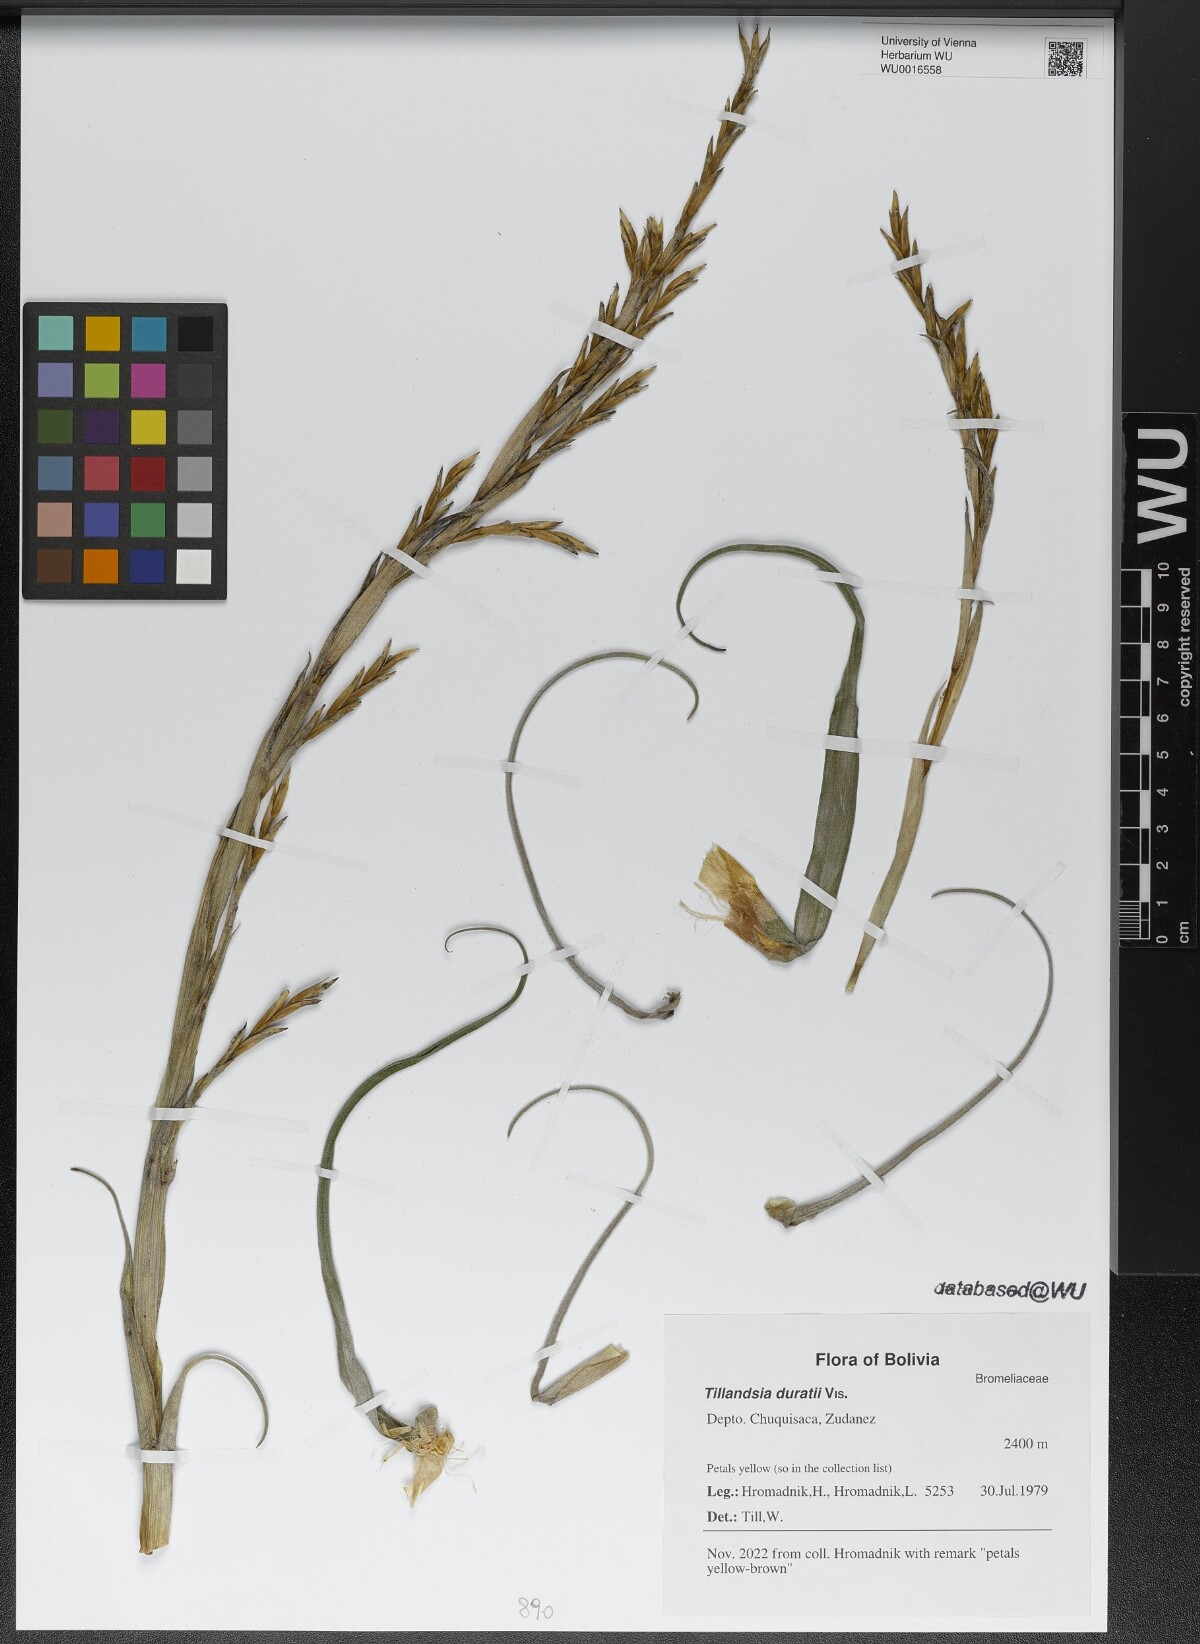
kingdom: Plantae
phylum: Tracheophyta
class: Liliopsida
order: Poales
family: Bromeliaceae
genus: Tillandsia
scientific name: Tillandsia duratii
